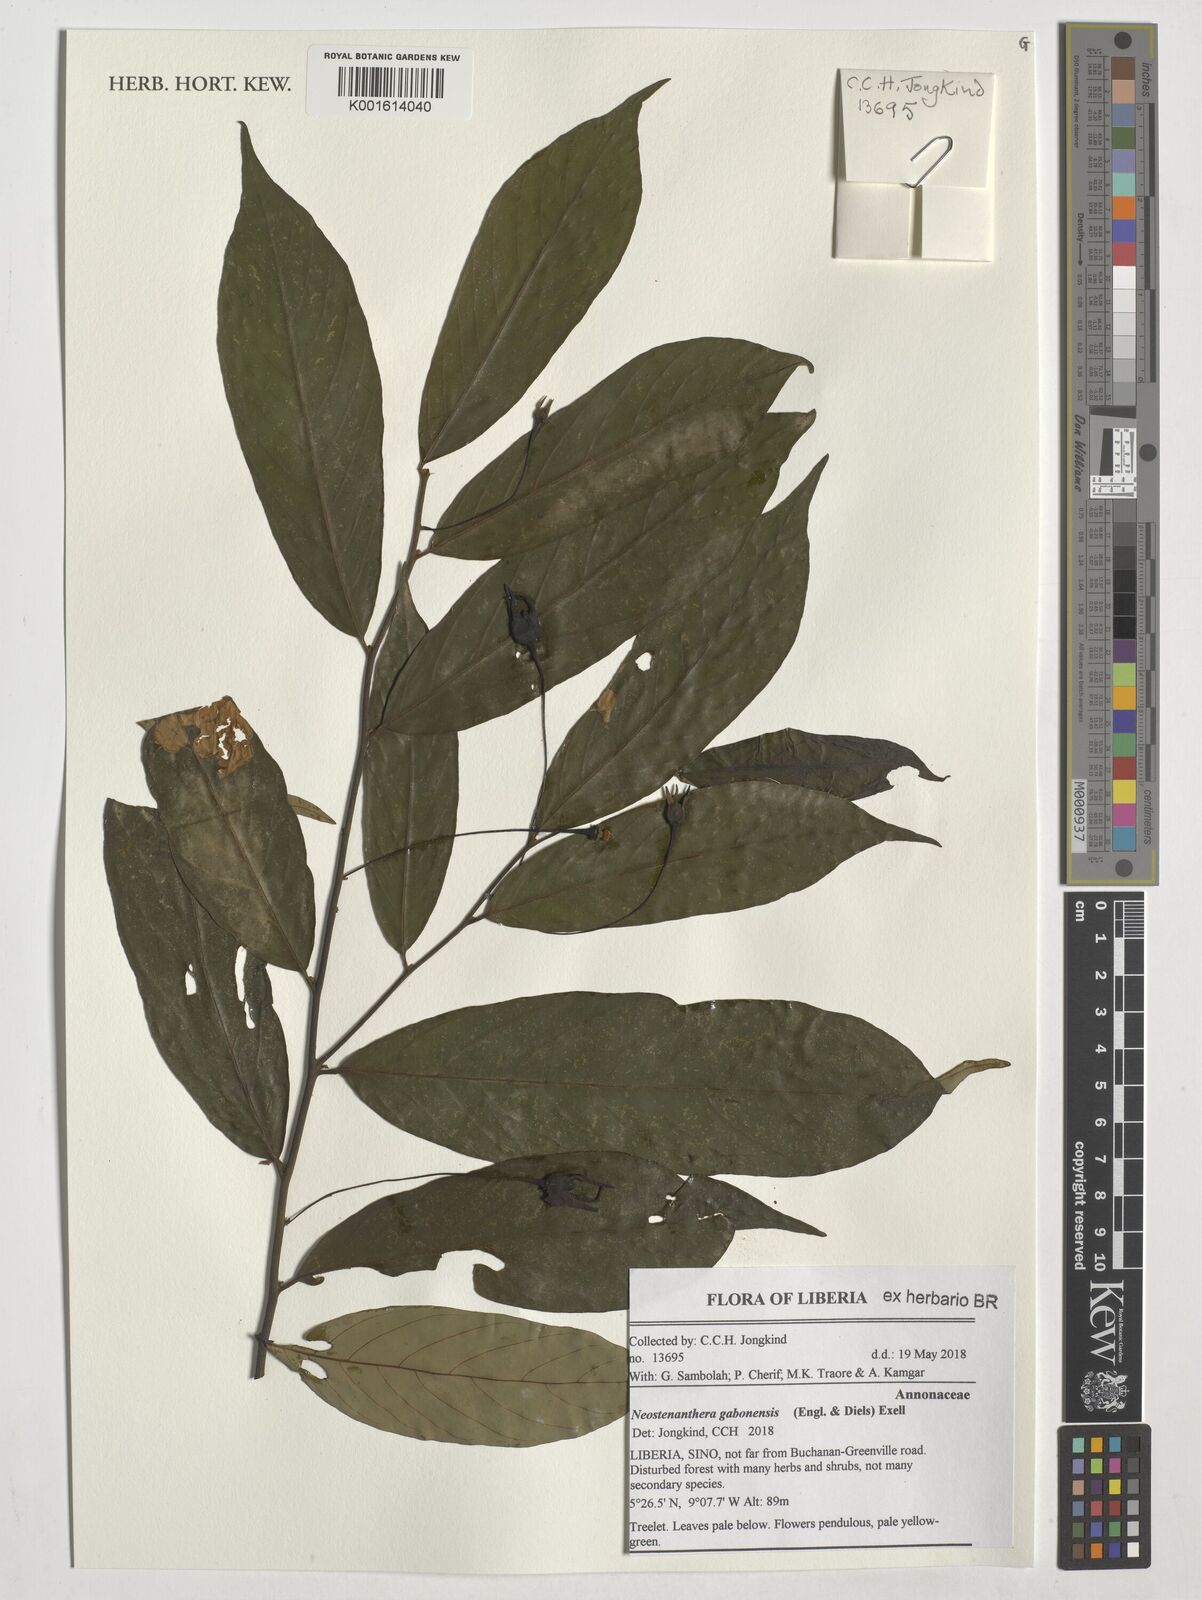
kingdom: Plantae
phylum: Tracheophyta
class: Magnoliopsida
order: Magnoliales
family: Annonaceae
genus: Neostenanthera
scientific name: Neostenanthera gabonensis
